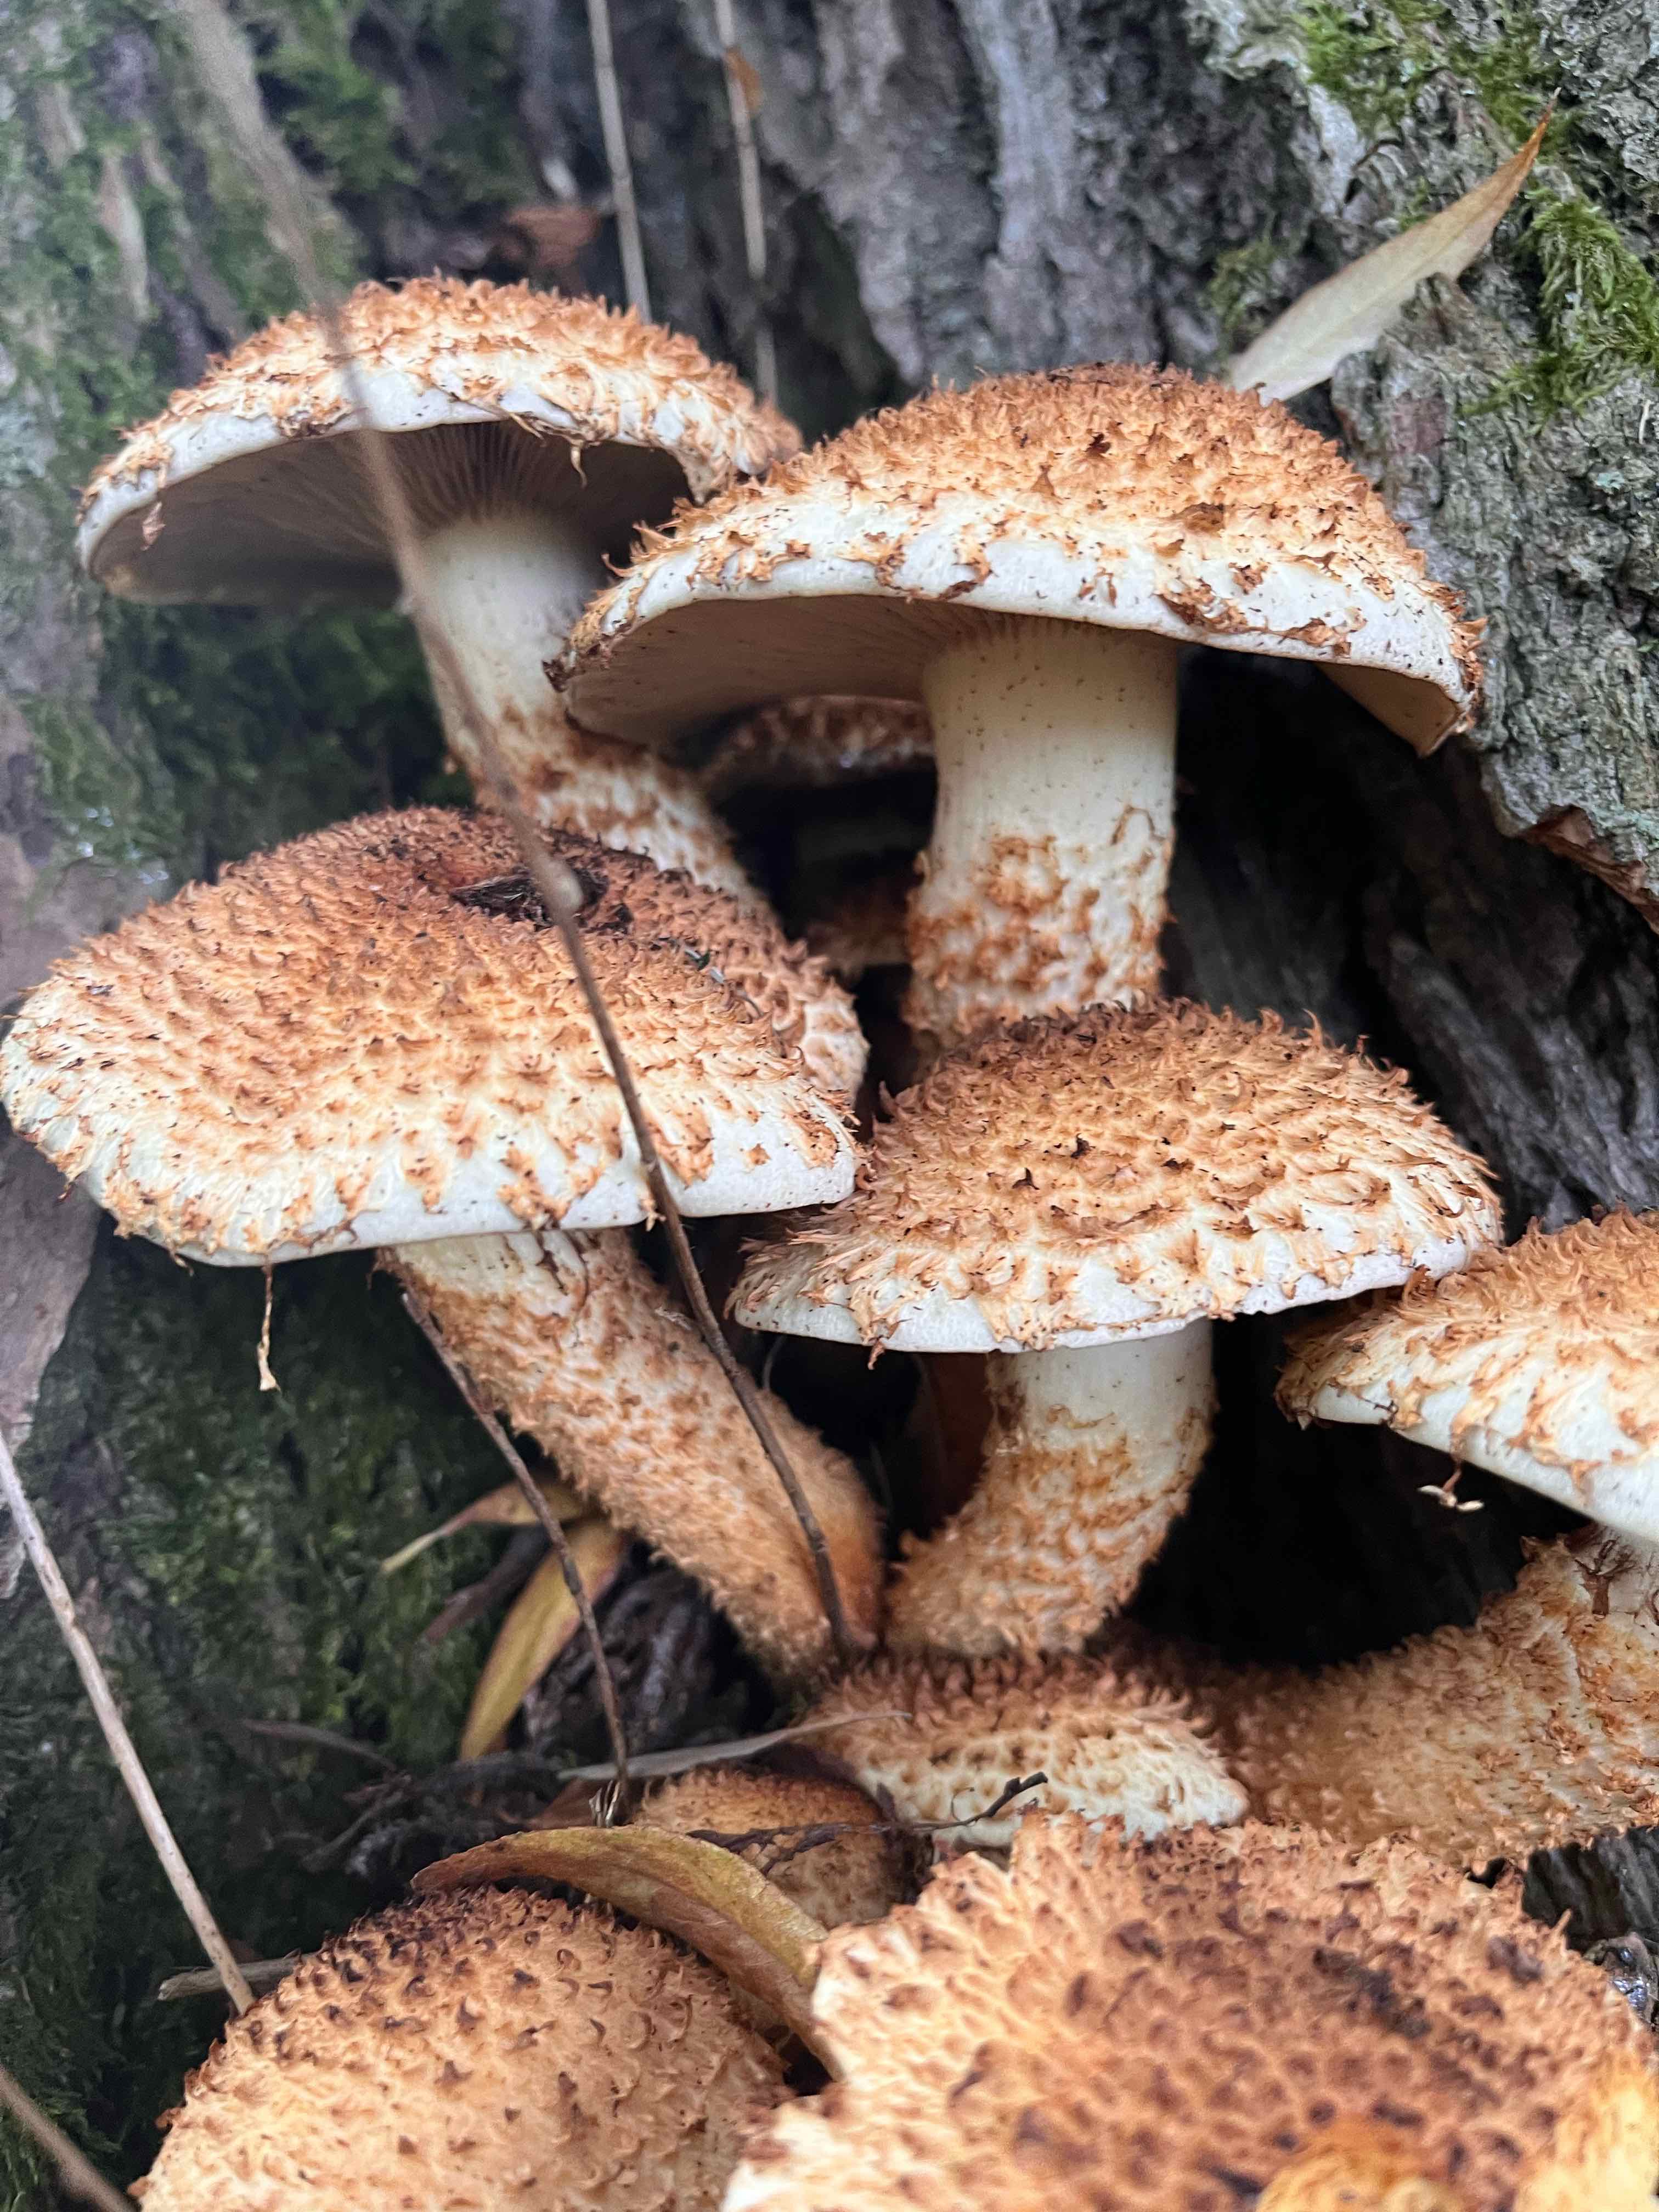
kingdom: Fungi
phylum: Basidiomycota
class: Agaricomycetes
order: Agaricales
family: Strophariaceae
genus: Pholiota
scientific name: Pholiota squarrosa
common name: krumskællet skælhat
